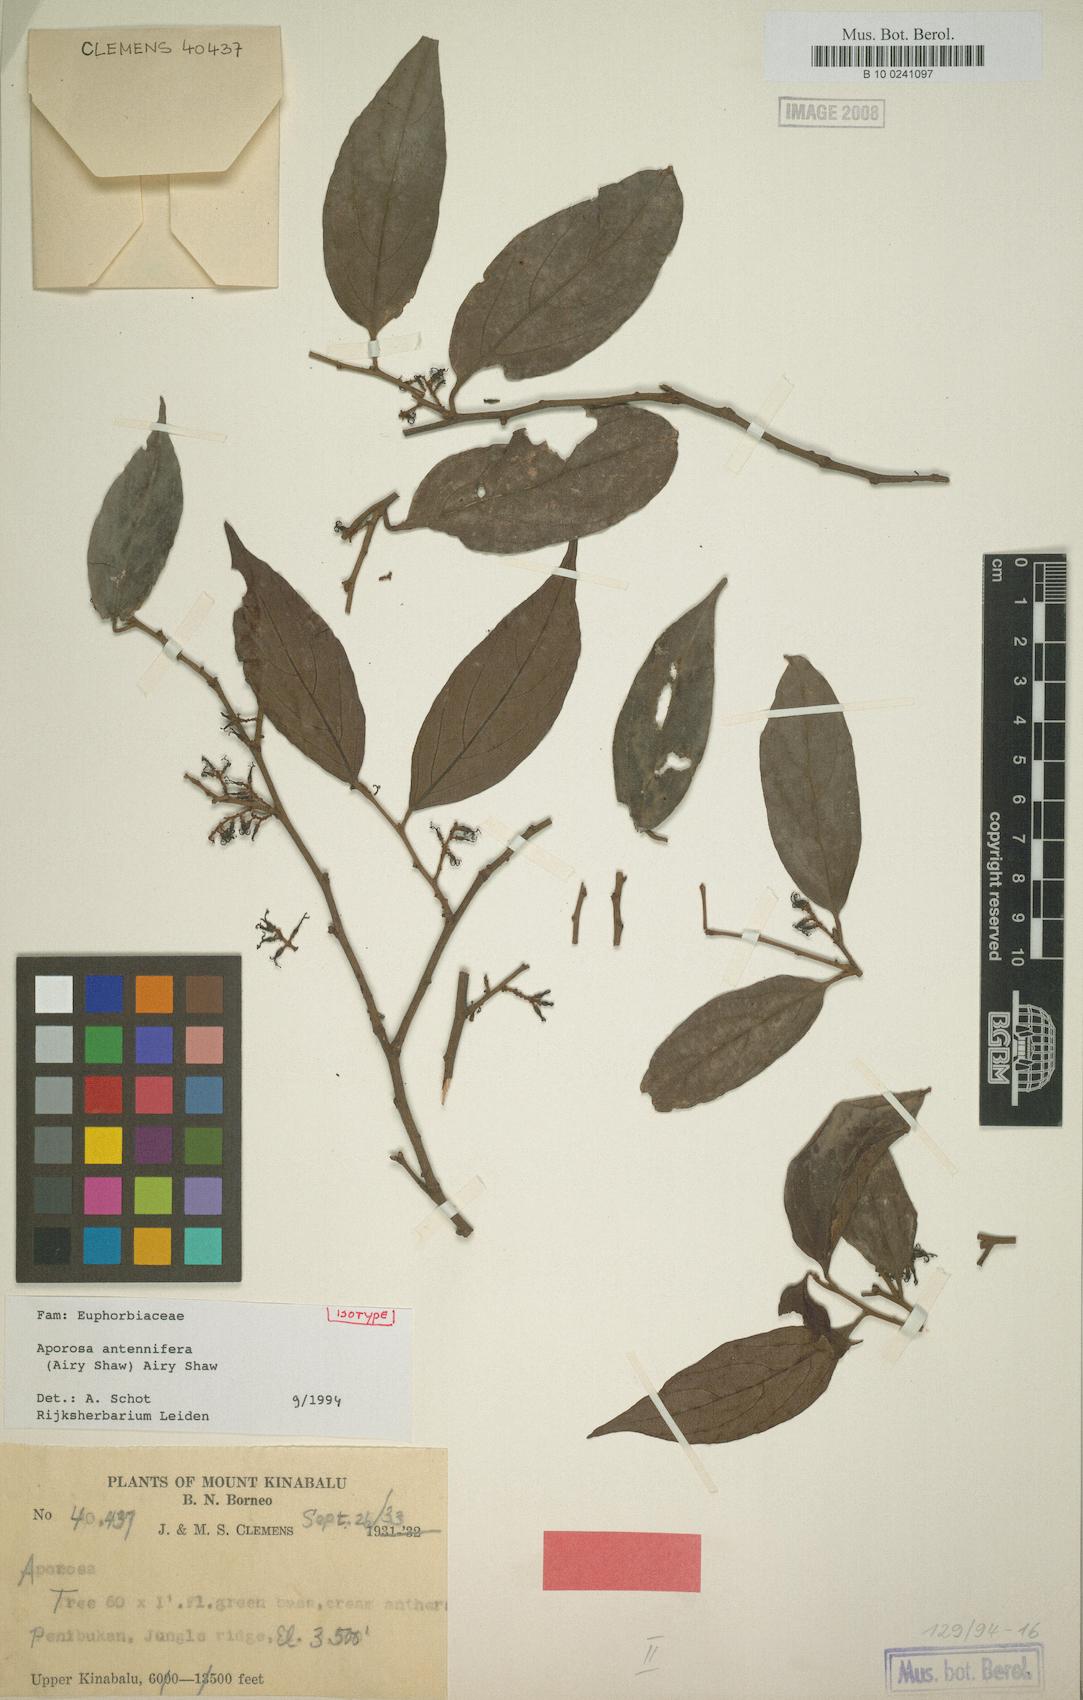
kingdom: Plantae
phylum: Tracheophyta
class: Magnoliopsida
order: Malpighiales
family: Phyllanthaceae
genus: Aporosa
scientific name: Aporosa antennifera
